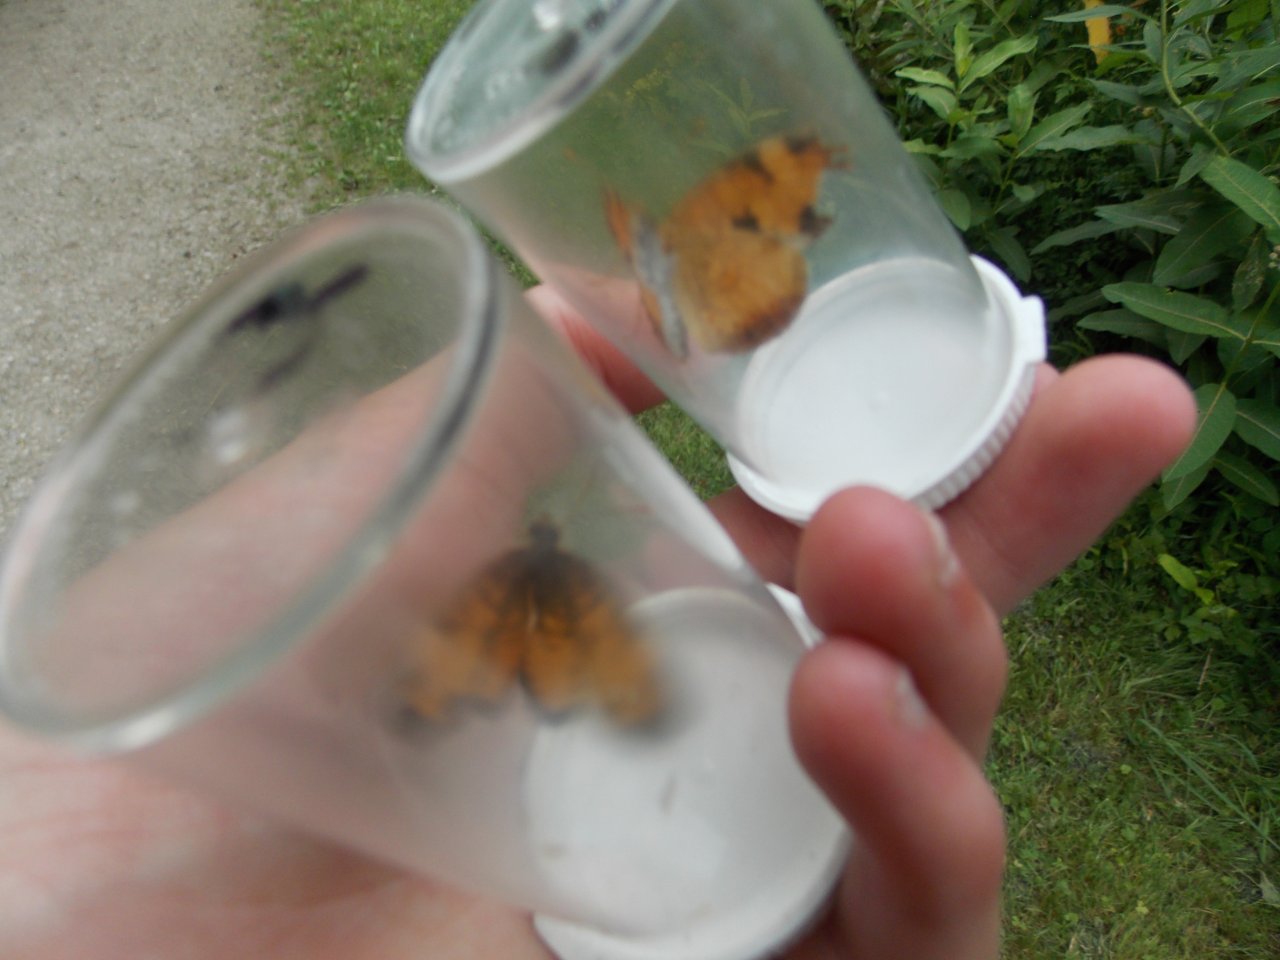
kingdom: Animalia
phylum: Arthropoda
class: Insecta
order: Lepidoptera
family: Nymphalidae
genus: Phyciodes
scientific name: Phyciodes tharos
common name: Northern Crescent
